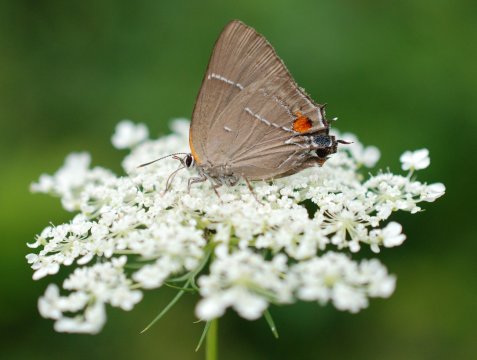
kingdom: Animalia
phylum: Arthropoda
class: Insecta
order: Lepidoptera
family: Lycaenidae
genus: Parrhasius
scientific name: Parrhasius m-album
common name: White-m Hairstreak
